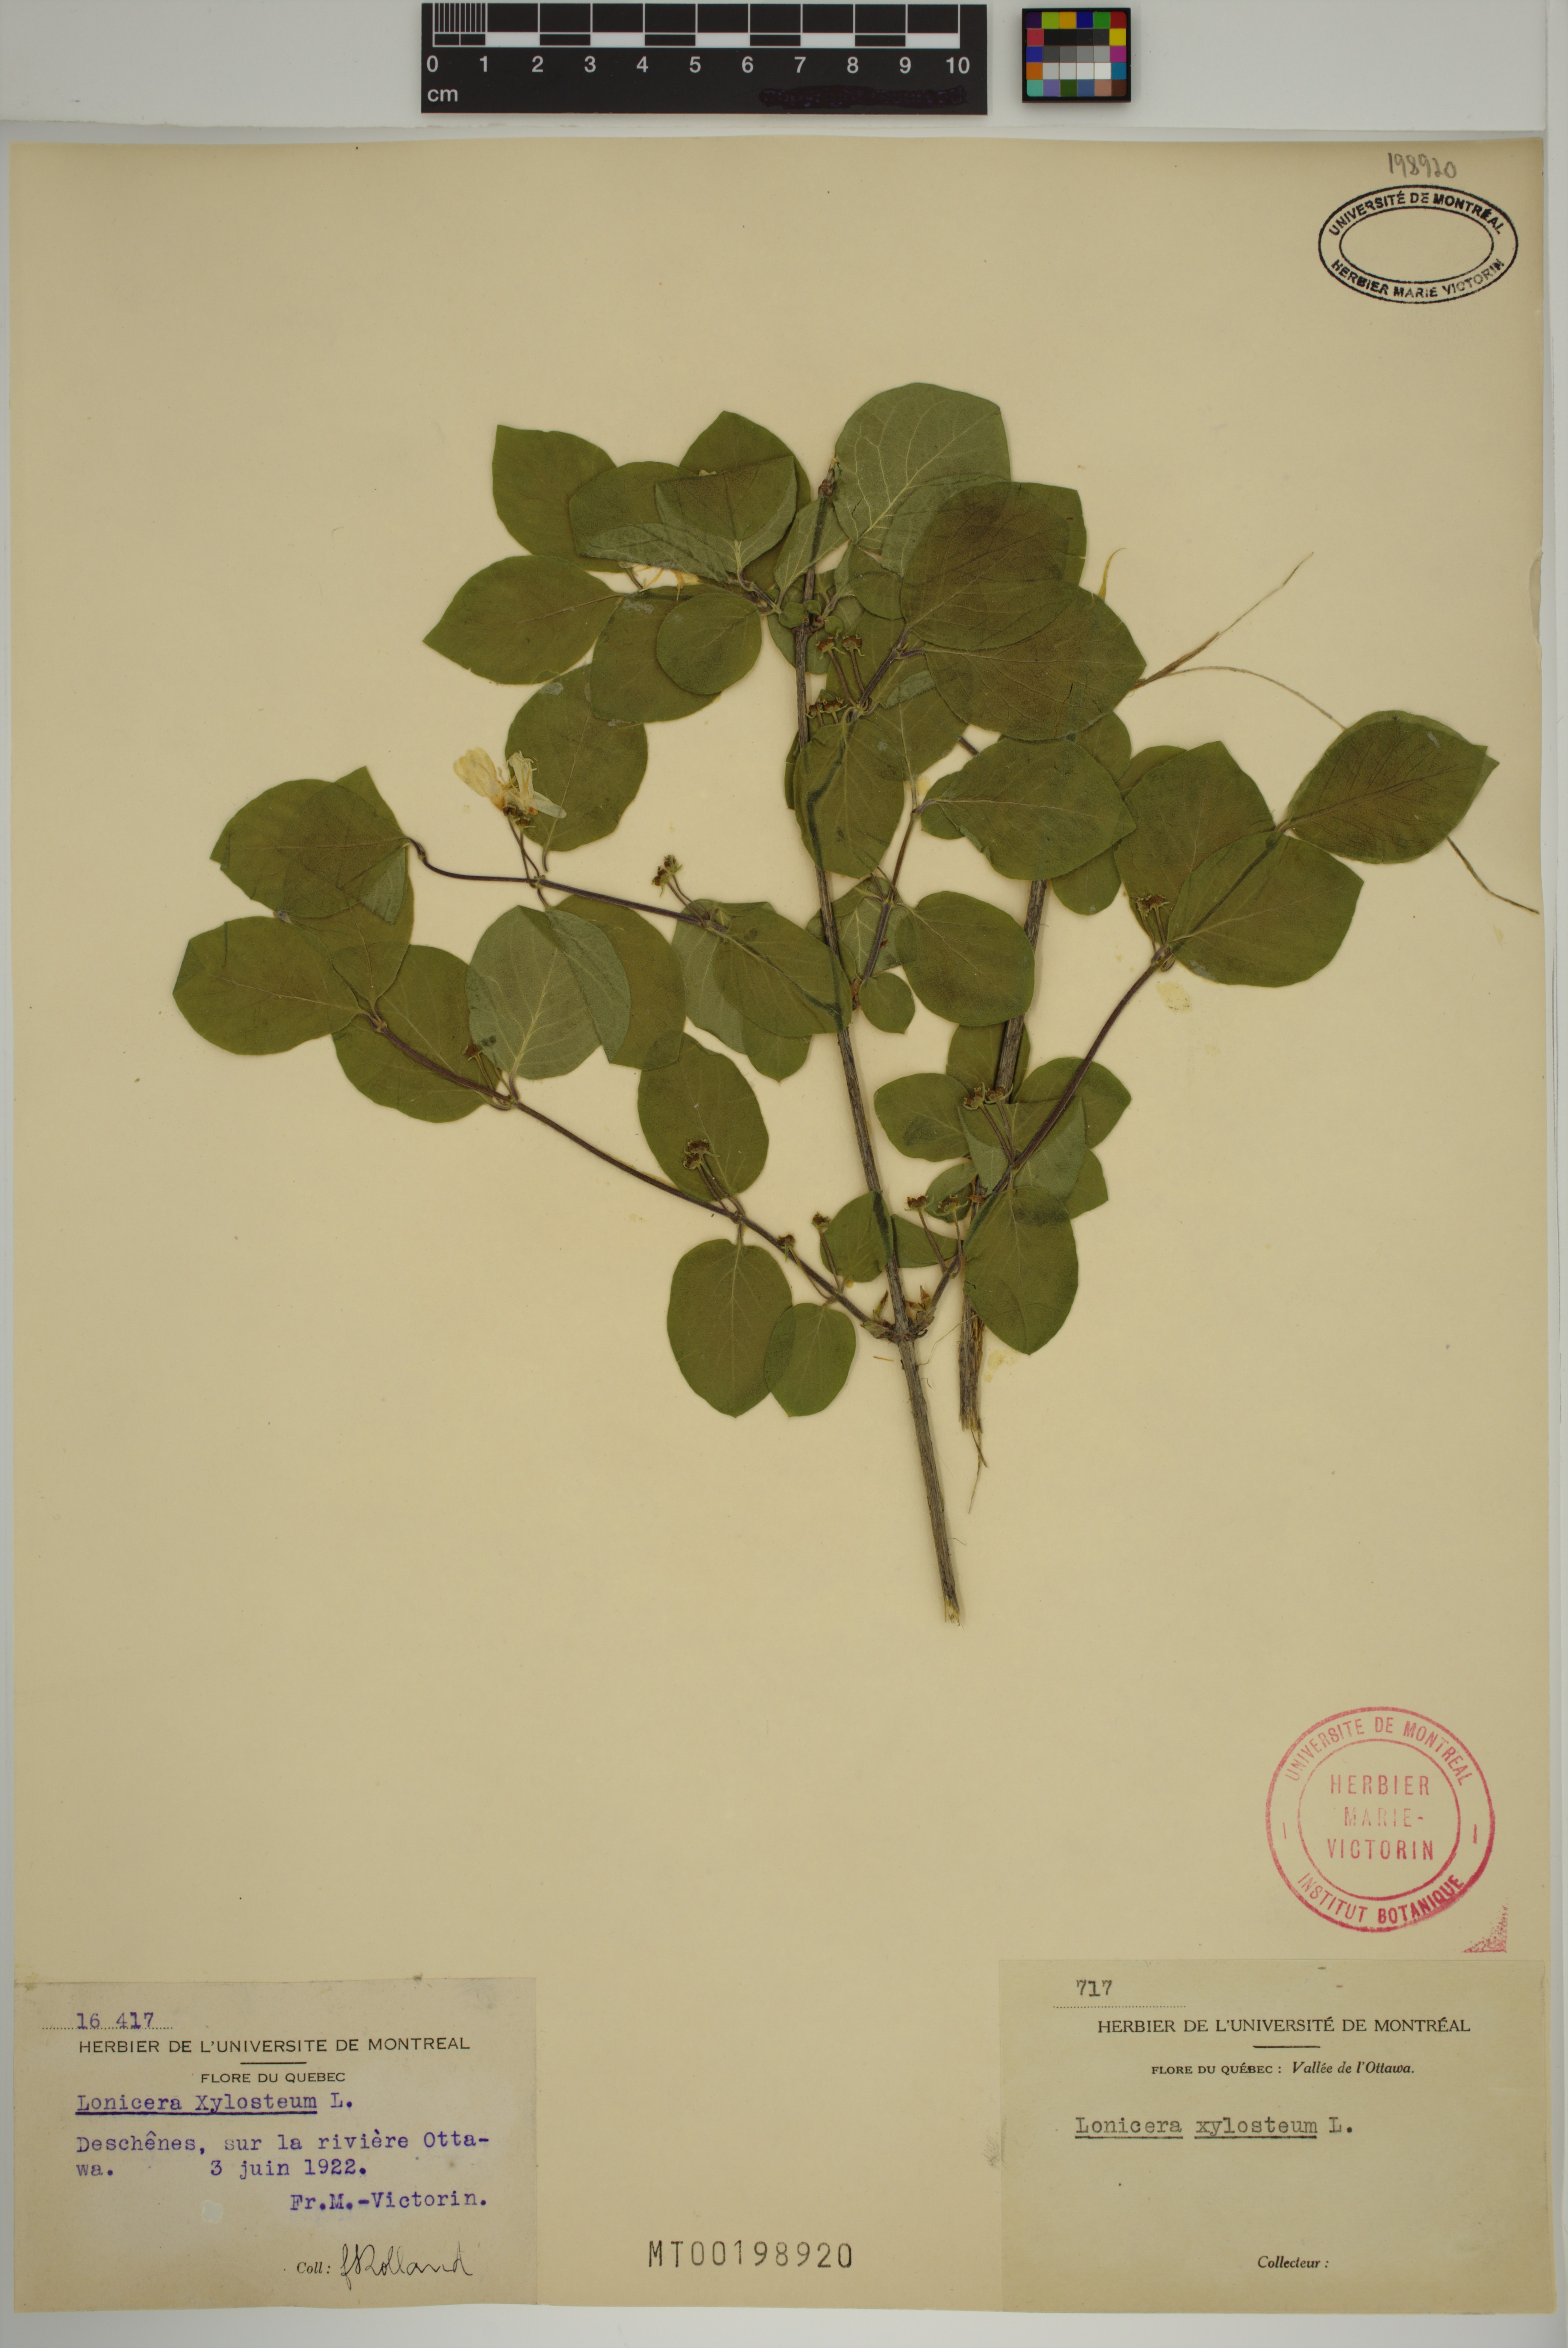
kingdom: Plantae
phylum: Tracheophyta
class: Magnoliopsida
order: Dipsacales
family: Caprifoliaceae
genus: Lonicera
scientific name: Lonicera xylosteum
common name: Fly honeysuckle
